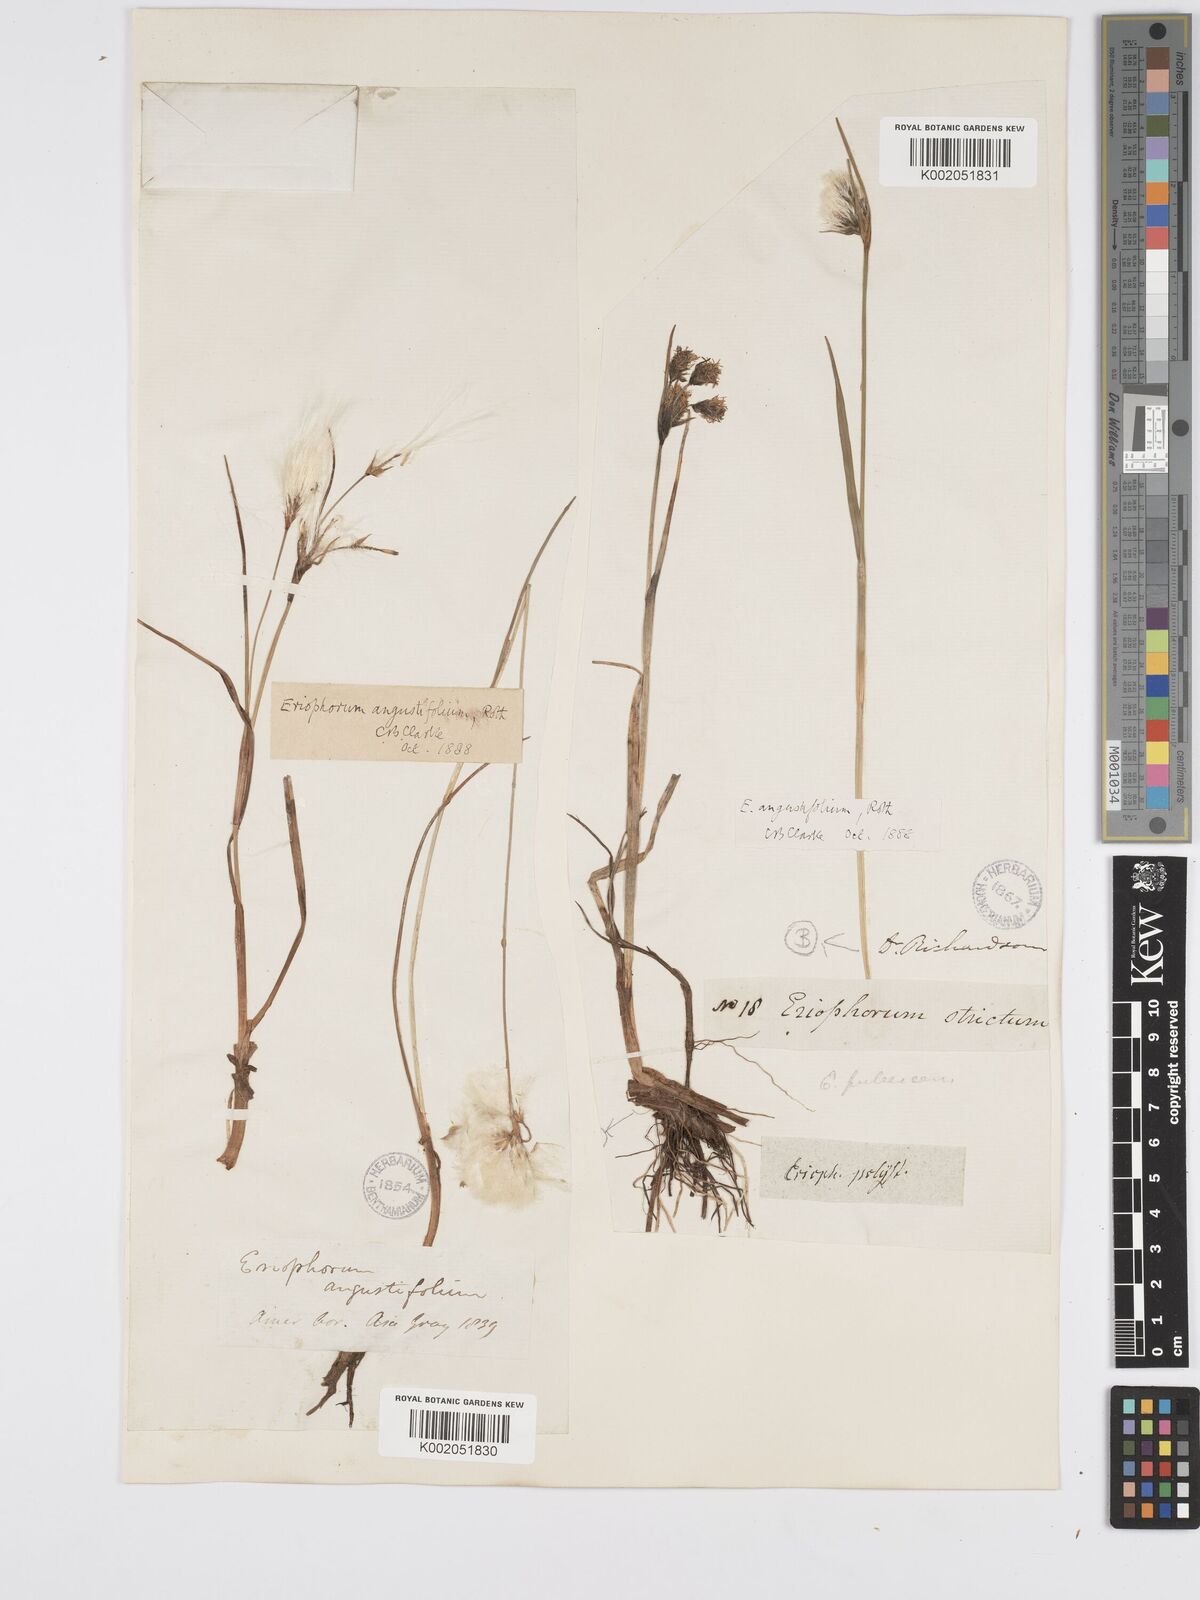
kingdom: Plantae
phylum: Tracheophyta
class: Liliopsida
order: Poales
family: Cyperaceae
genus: Eriophorum
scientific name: Eriophorum angustifolium
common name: Common cottongrass
